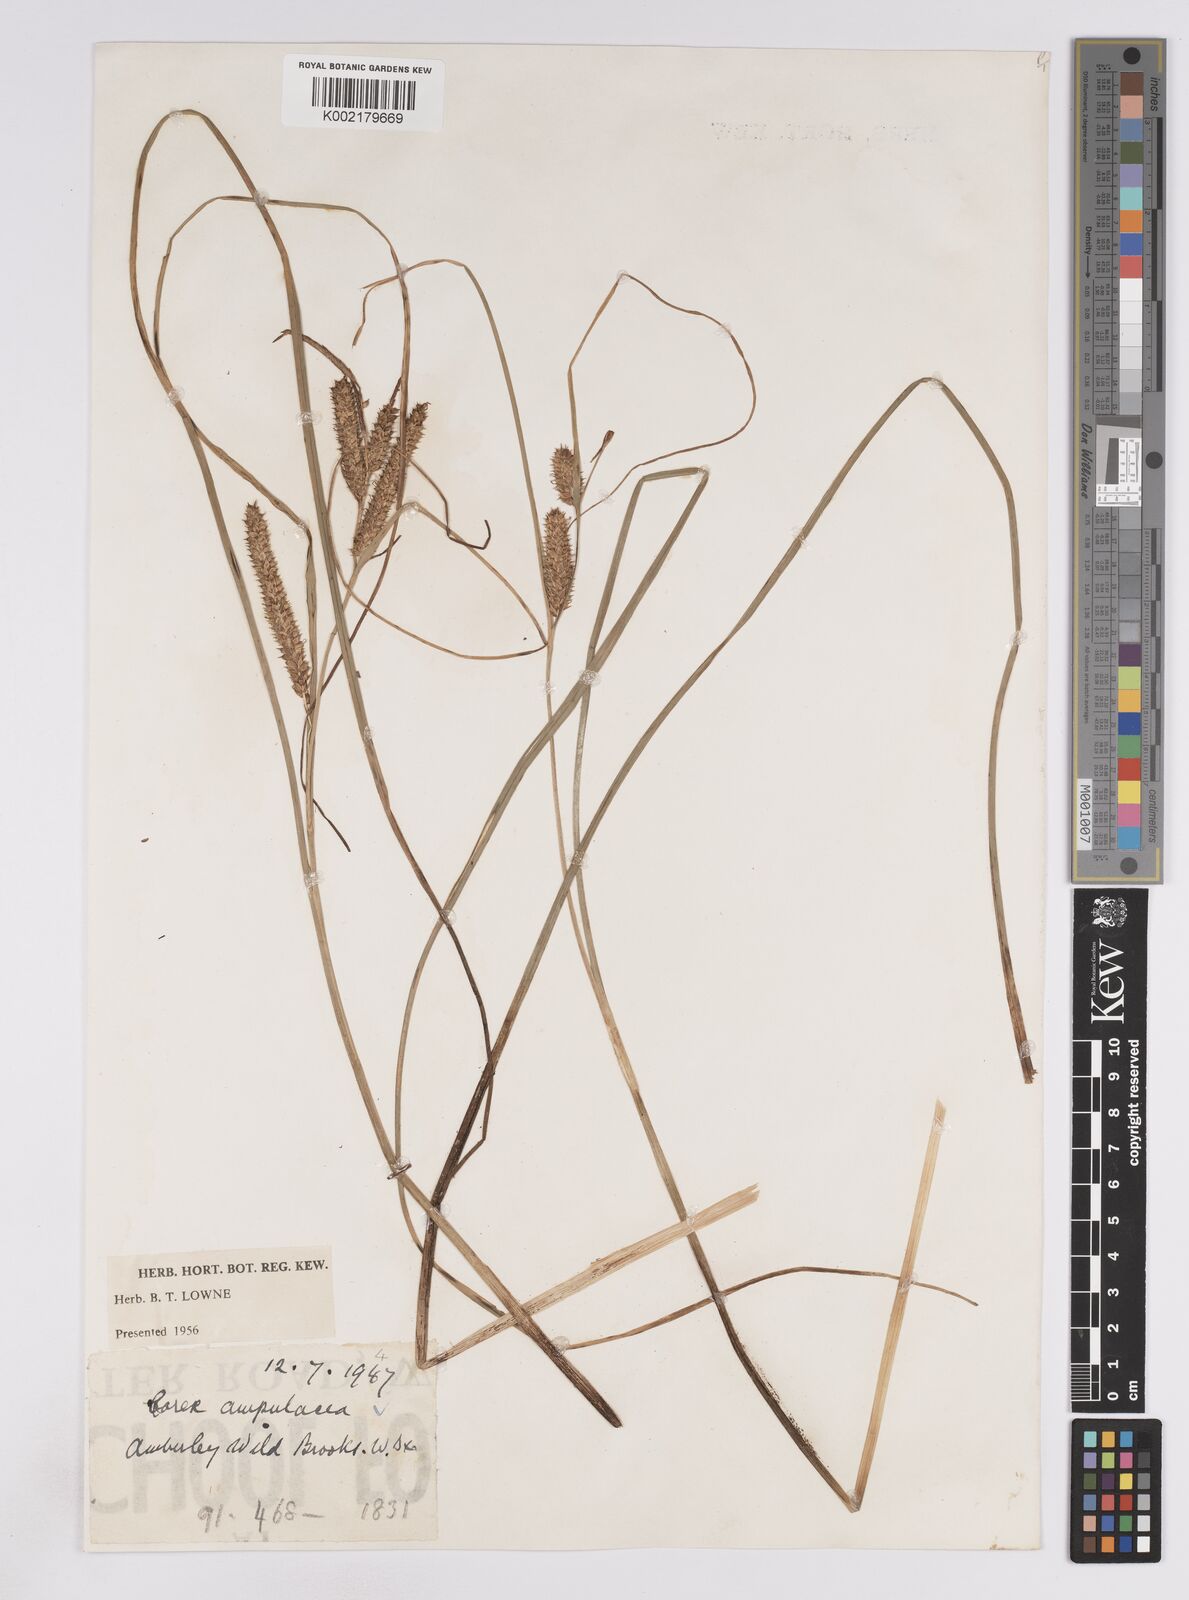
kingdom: Plantae
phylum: Tracheophyta
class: Liliopsida
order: Poales
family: Cyperaceae
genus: Carex
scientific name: Carex rostrata
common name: Bottle sedge
